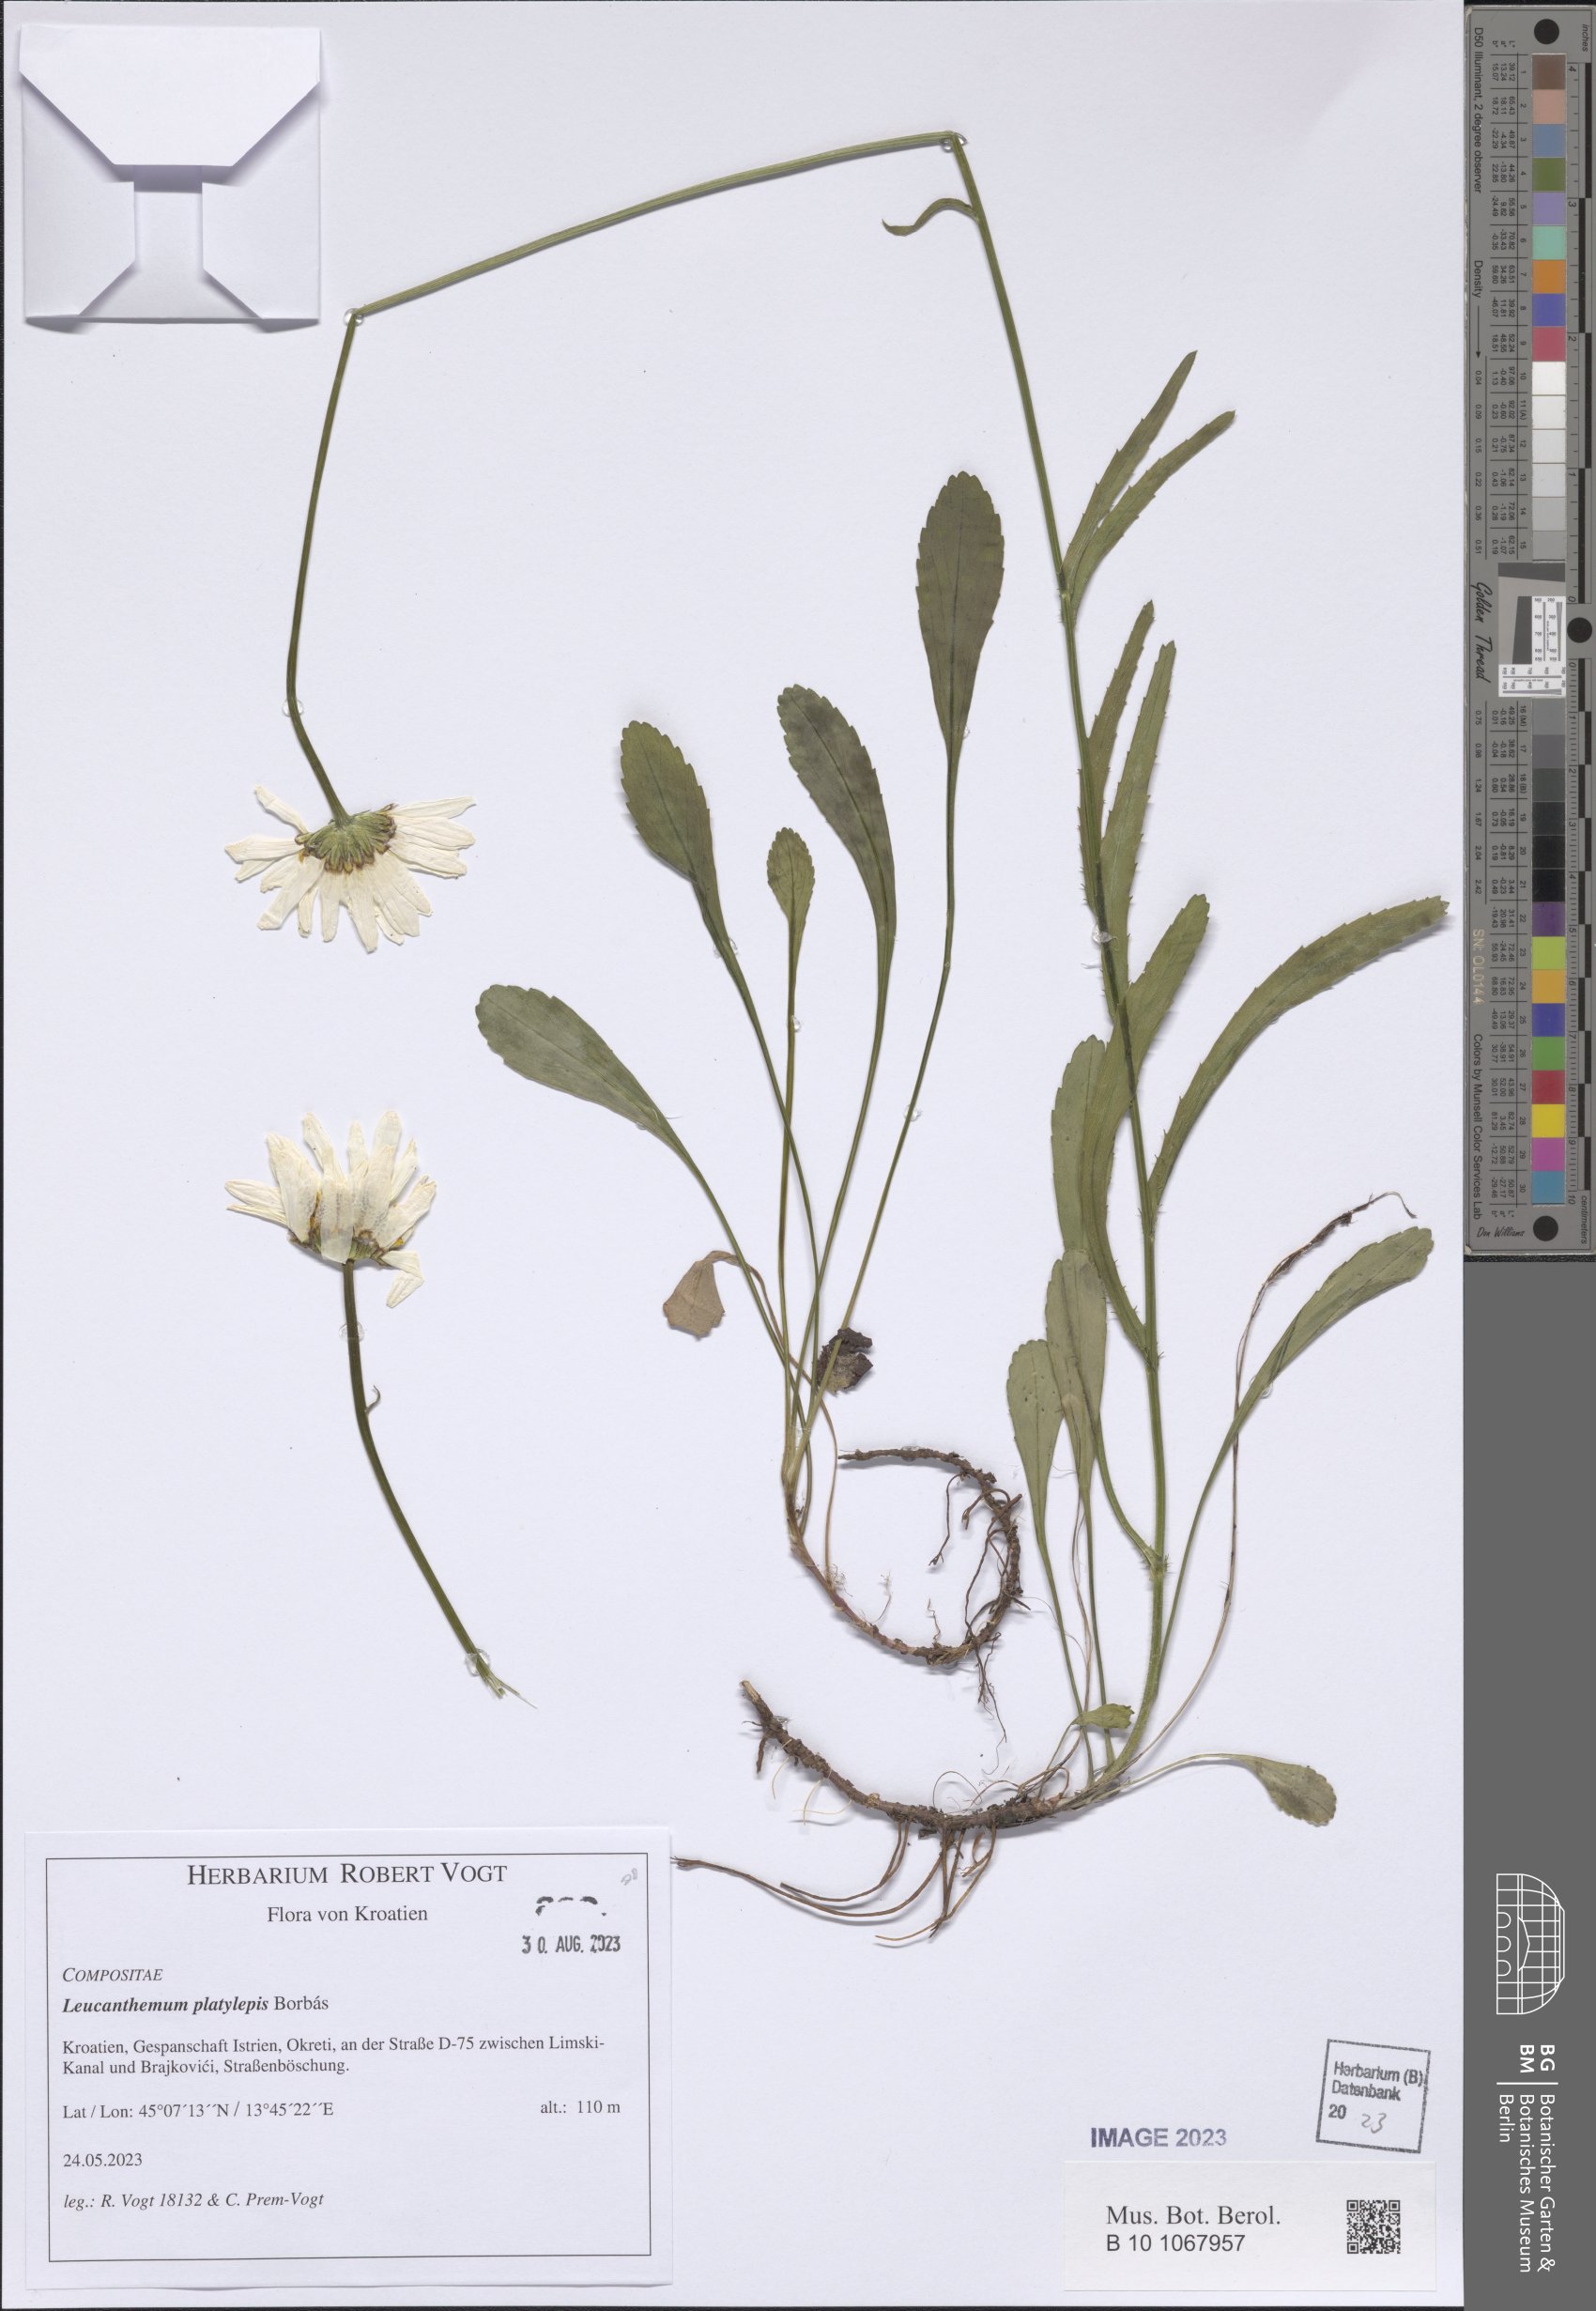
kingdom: Plantae
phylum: Tracheophyta
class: Magnoliopsida
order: Asterales
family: Asteraceae
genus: Leucanthemum
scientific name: Leucanthemum platylepis
